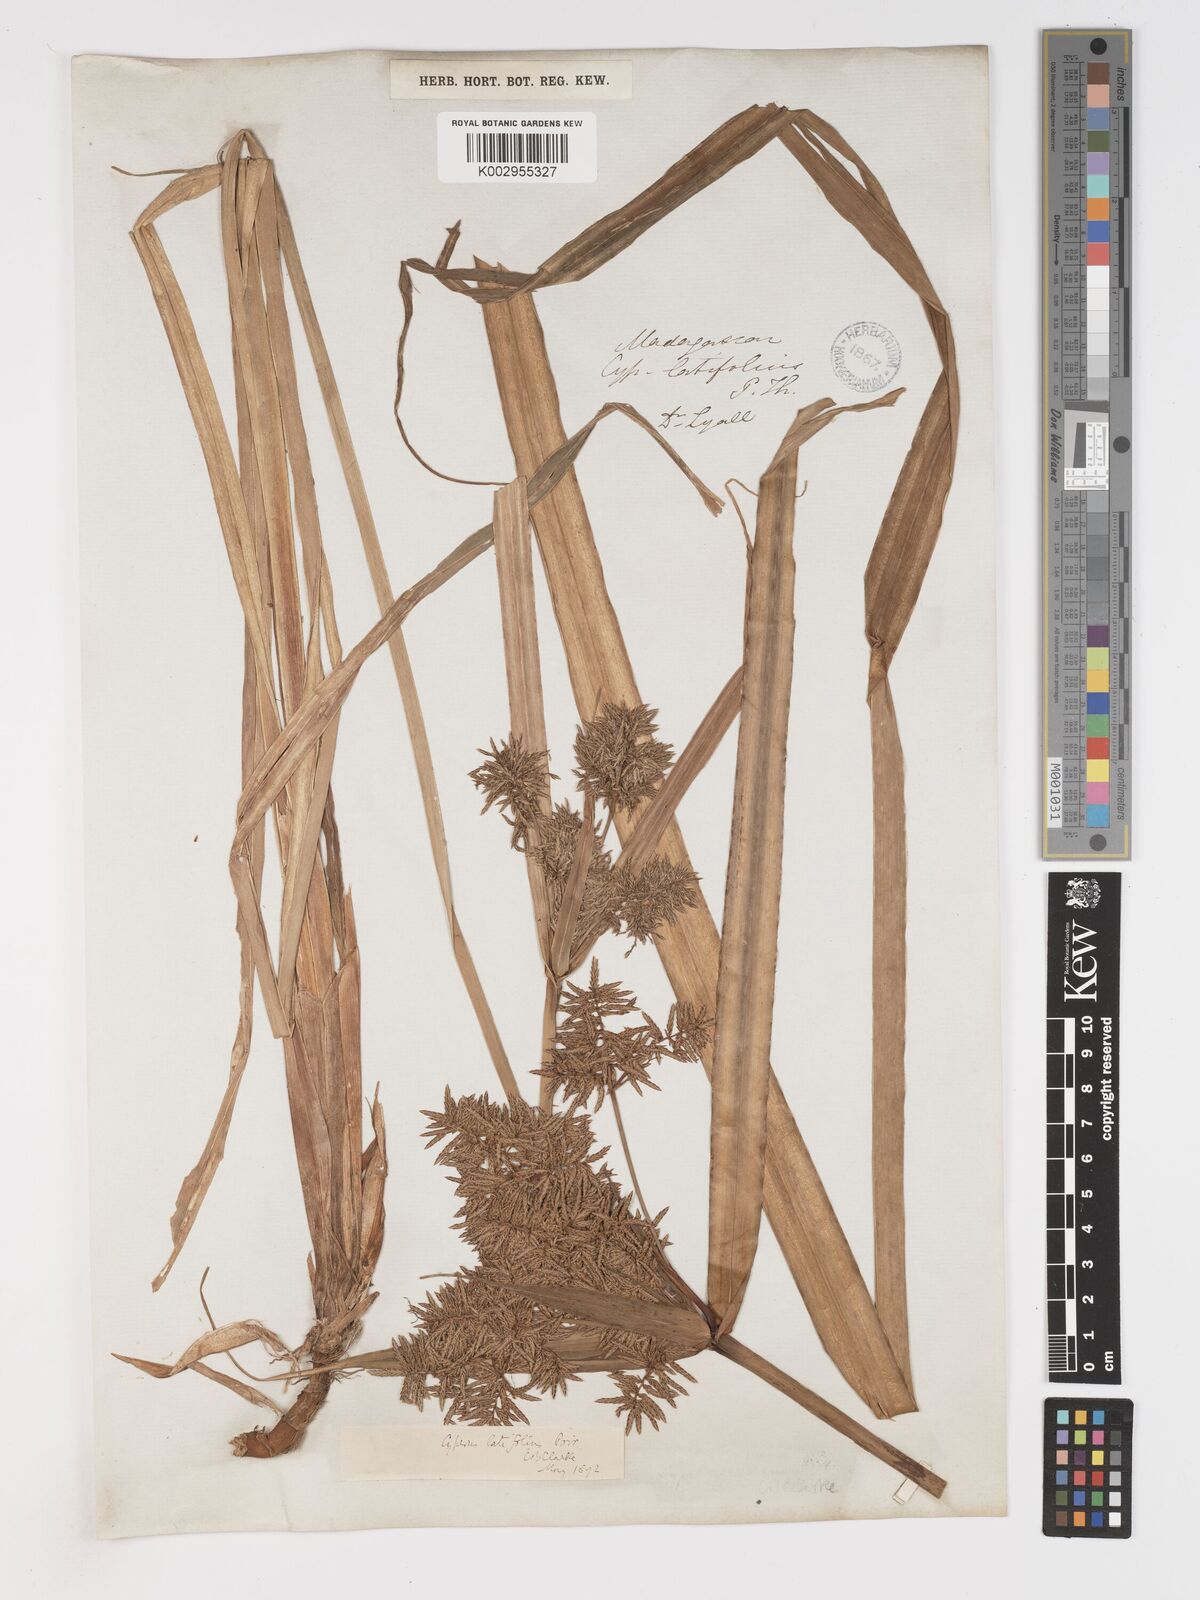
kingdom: Plantae
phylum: Tracheophyta
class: Liliopsida
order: Poales
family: Cyperaceae
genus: Cyperus
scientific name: Cyperus latifolius
